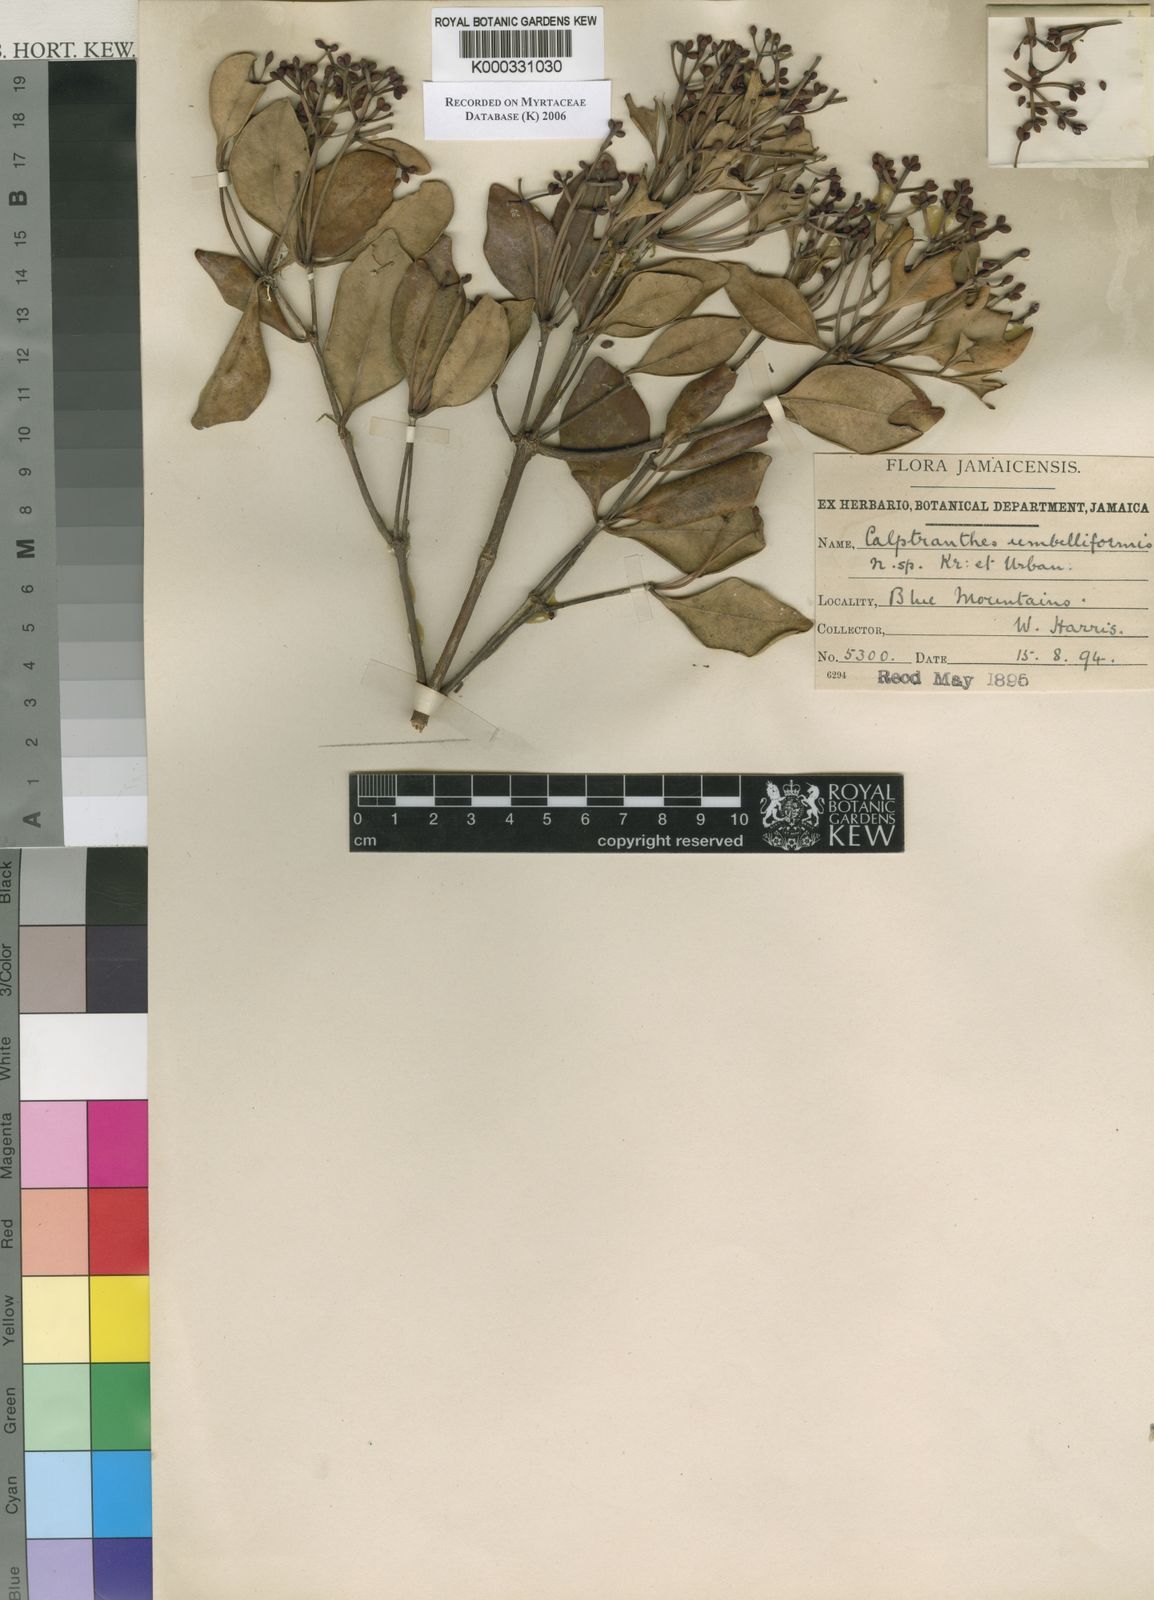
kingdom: Plantae
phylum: Tracheophyta
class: Magnoliopsida
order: Myrtales
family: Myrtaceae
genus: Myrcia
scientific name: Myrcia umbelliformis
